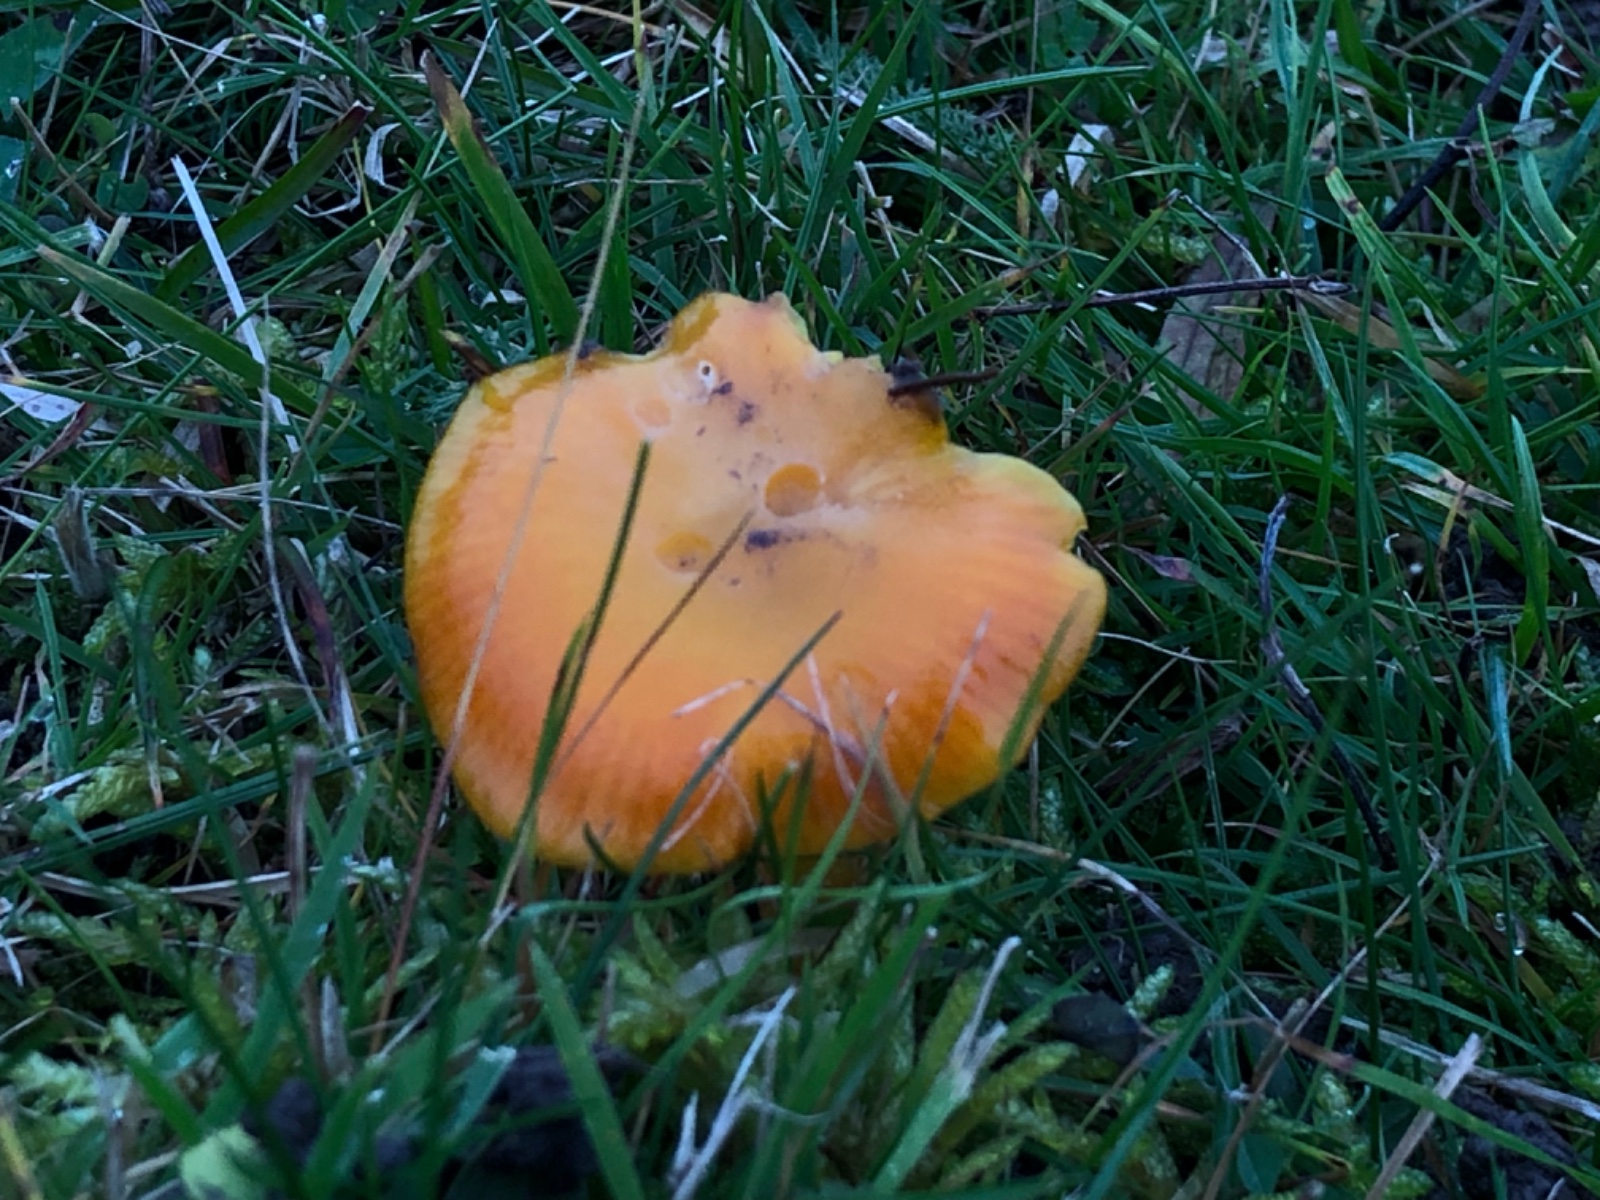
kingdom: Fungi
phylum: Basidiomycota
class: Agaricomycetes
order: Agaricales
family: Hygrophoraceae
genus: Hygrocybe
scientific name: Hygrocybe
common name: vokshat
